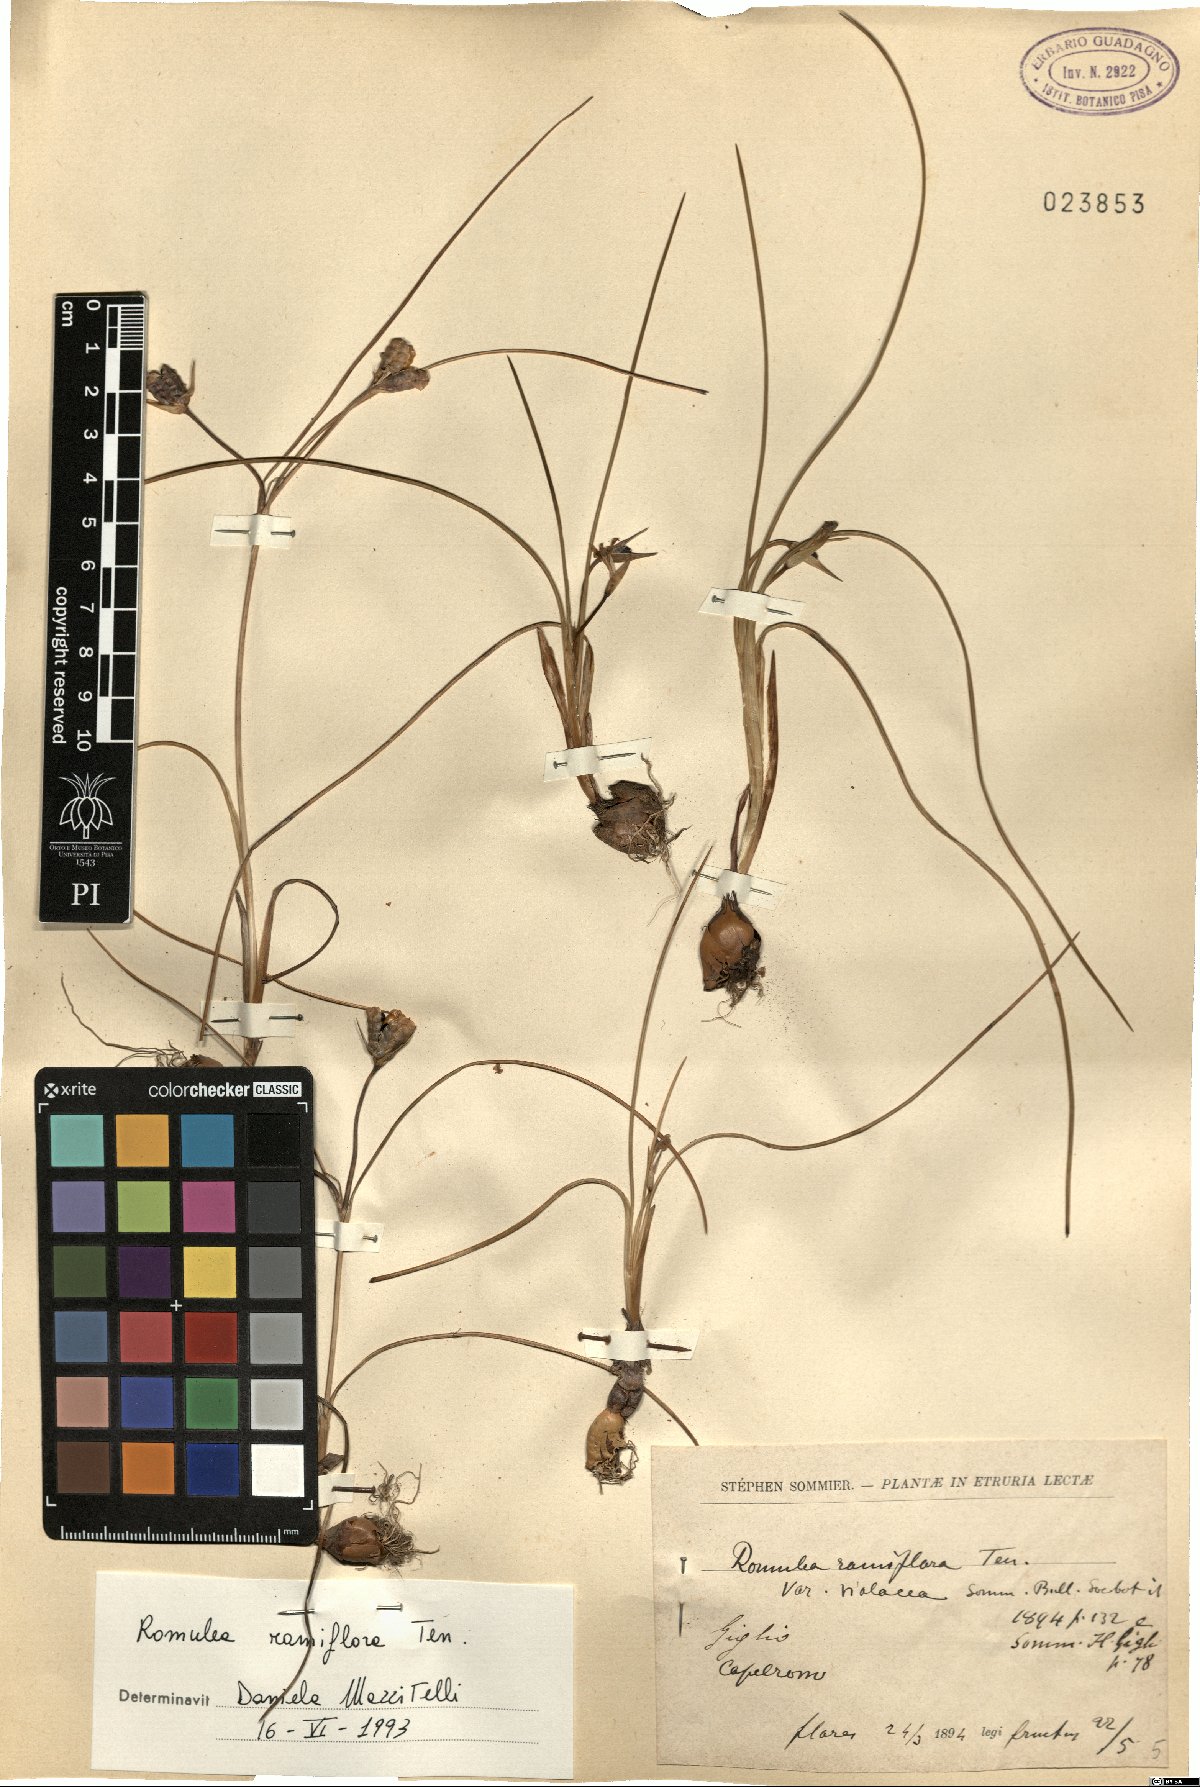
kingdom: Plantae
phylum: Tracheophyta
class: Liliopsida
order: Asparagales
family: Iridaceae
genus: Romulea
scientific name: Romulea ramiflora
